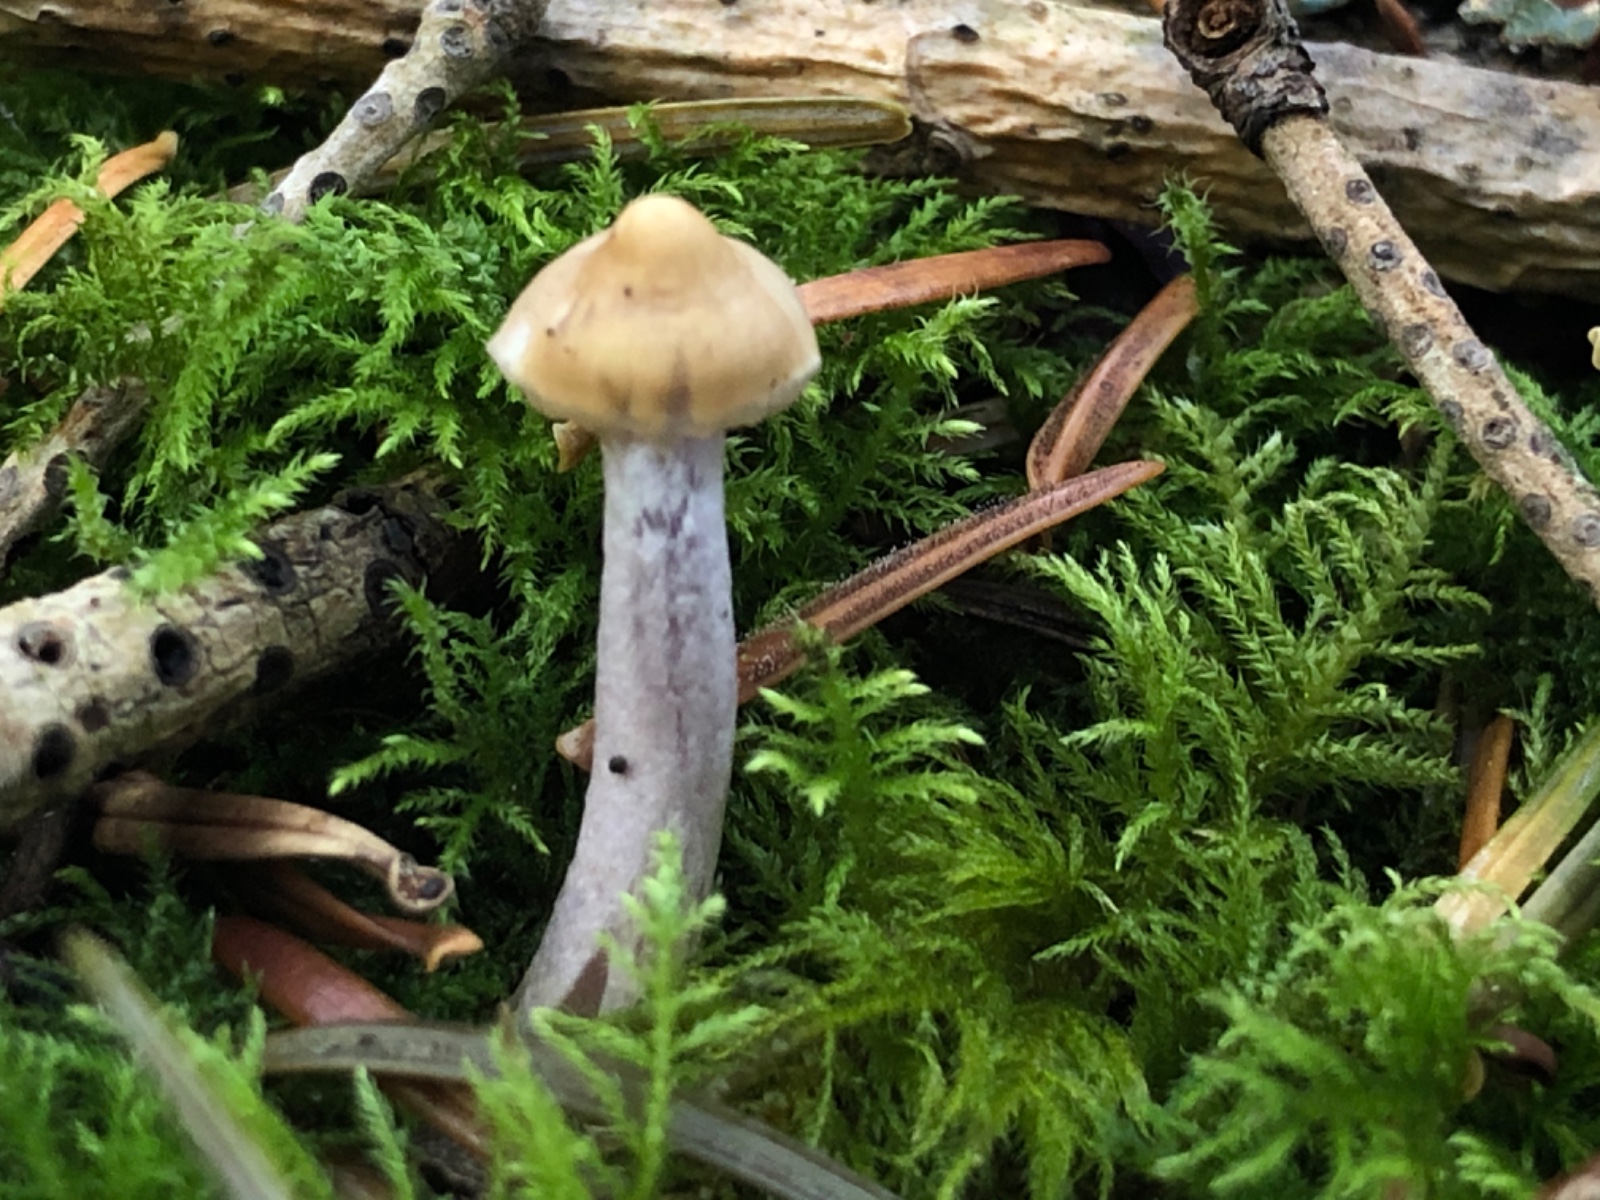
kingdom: Fungi
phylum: Basidiomycota
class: Agaricomycetes
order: Agaricales
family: Inocybaceae
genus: Inocybe
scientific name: Inocybe geophylla
